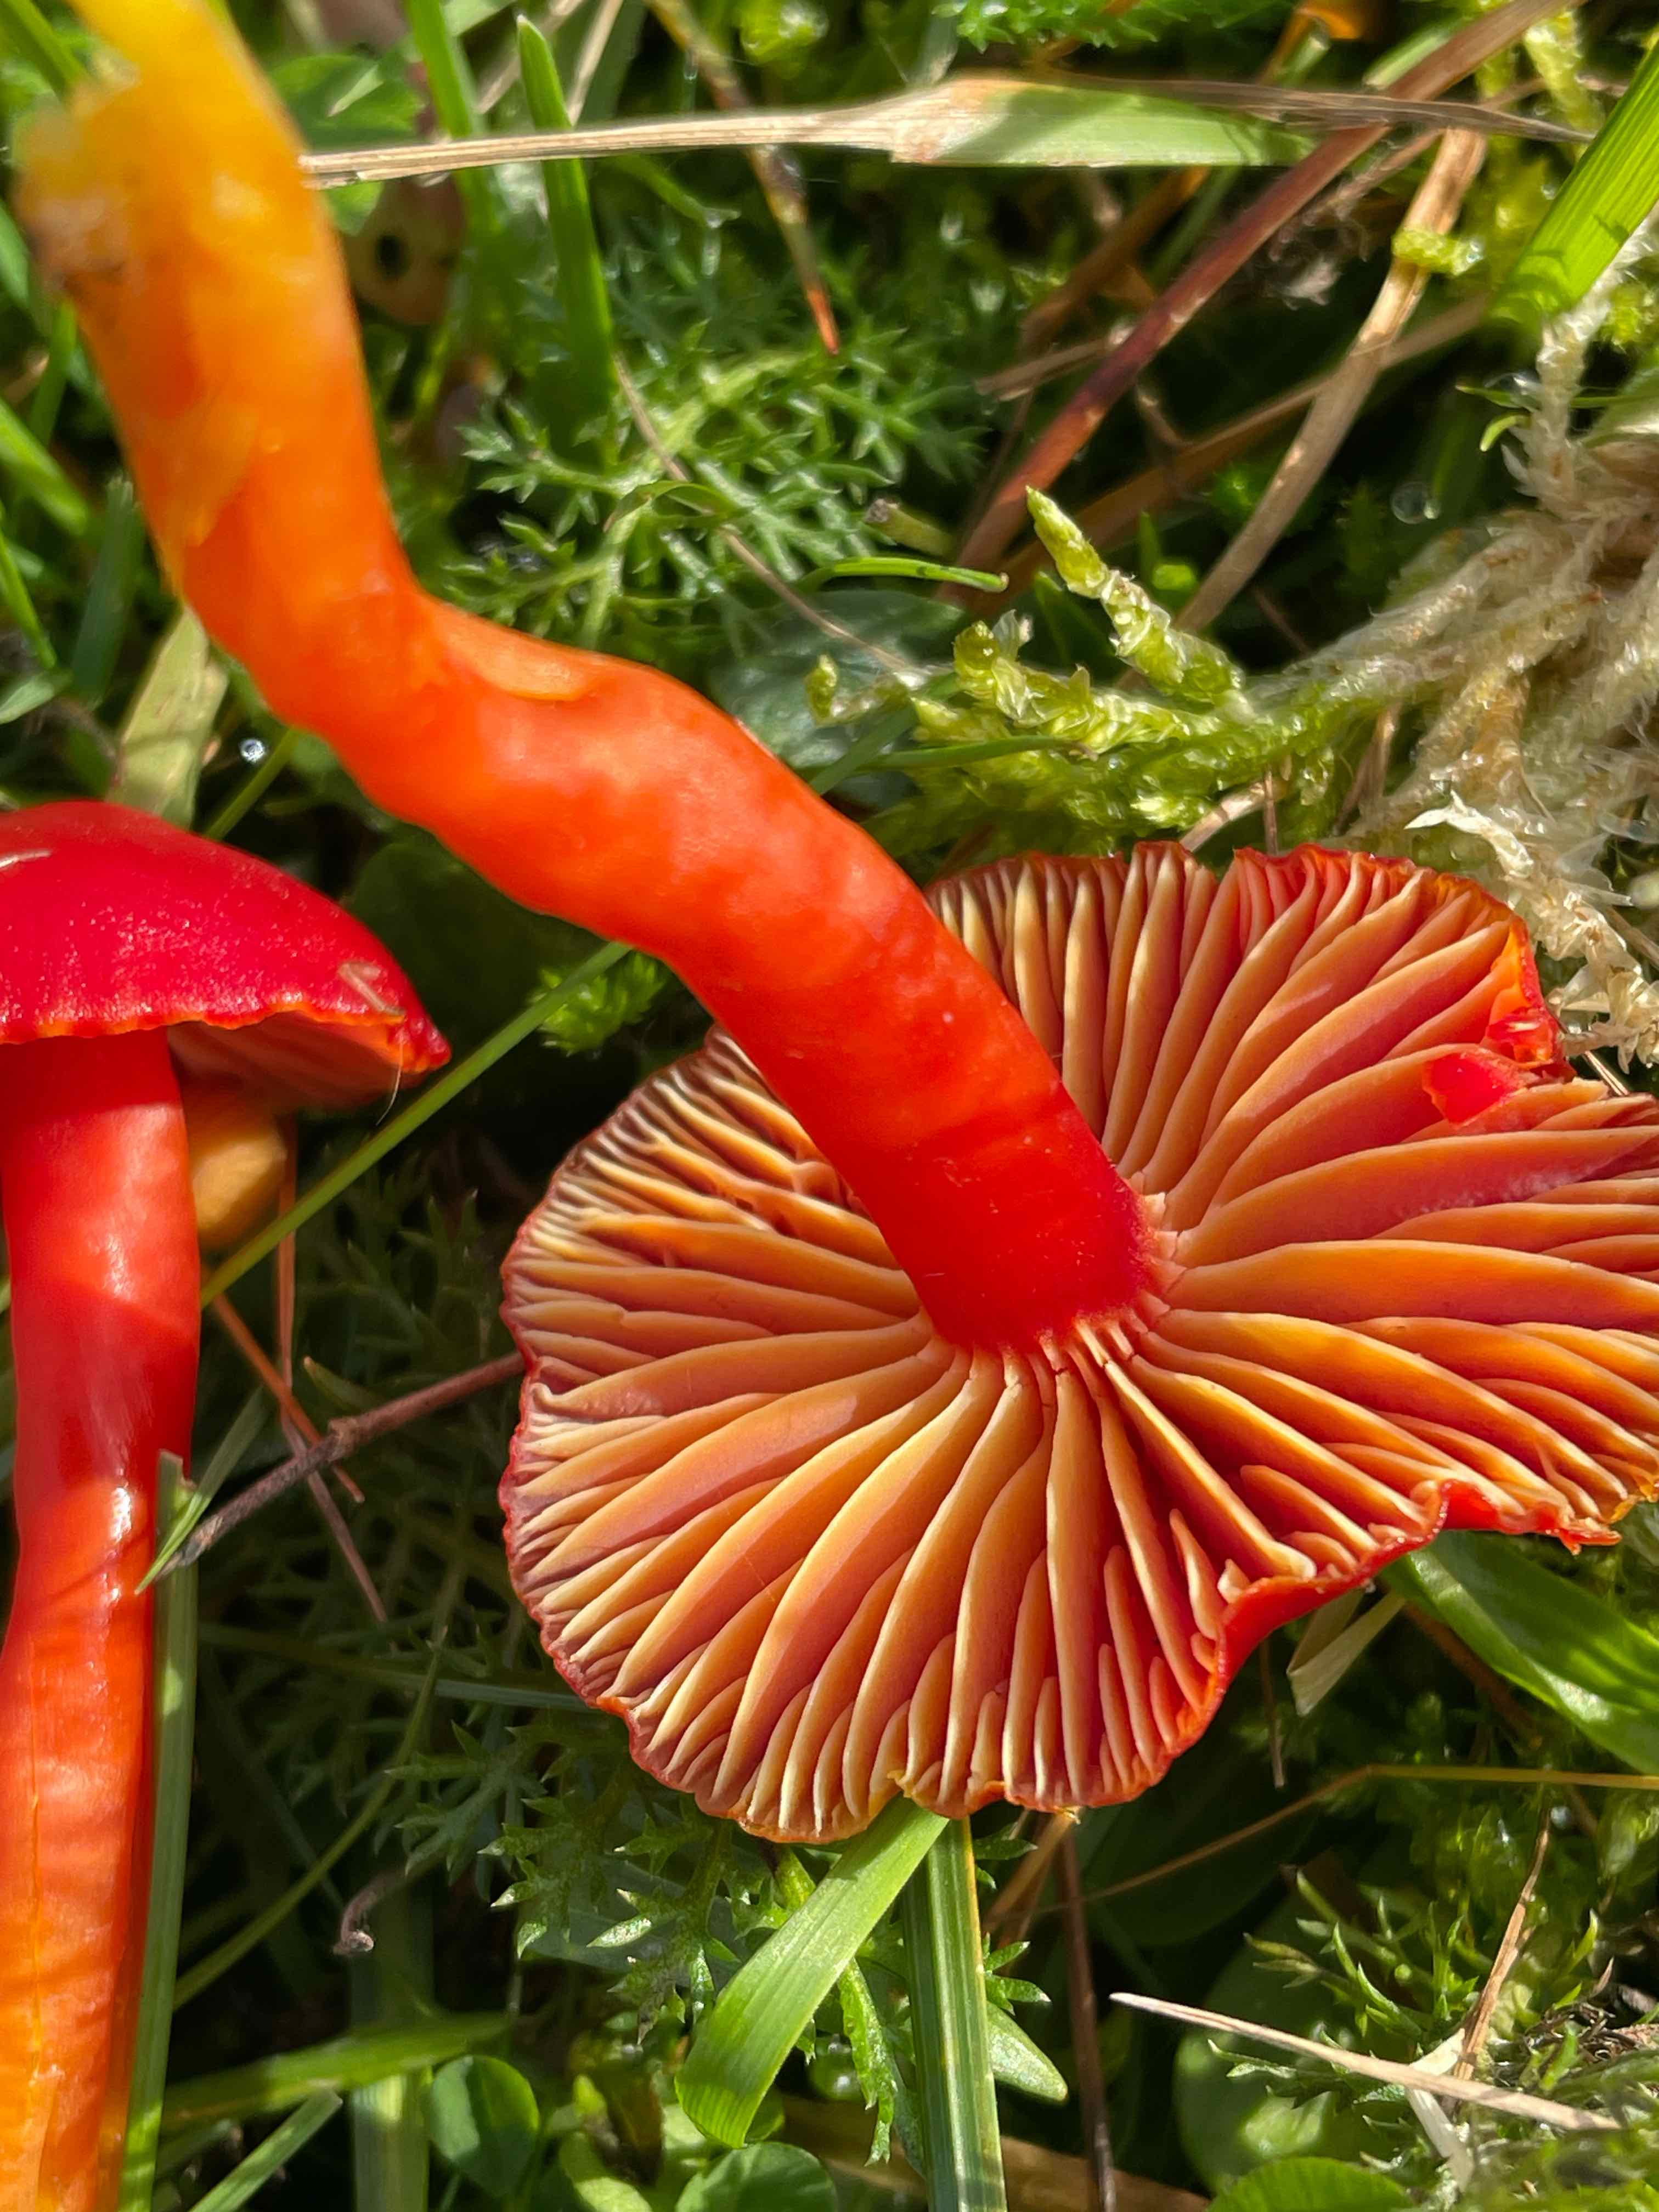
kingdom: Fungi
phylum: Basidiomycota
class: Agaricomycetes
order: Agaricales
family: Hygrophoraceae
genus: Hygrocybe
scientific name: Hygrocybe coccinea
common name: cinnober-vokshat
